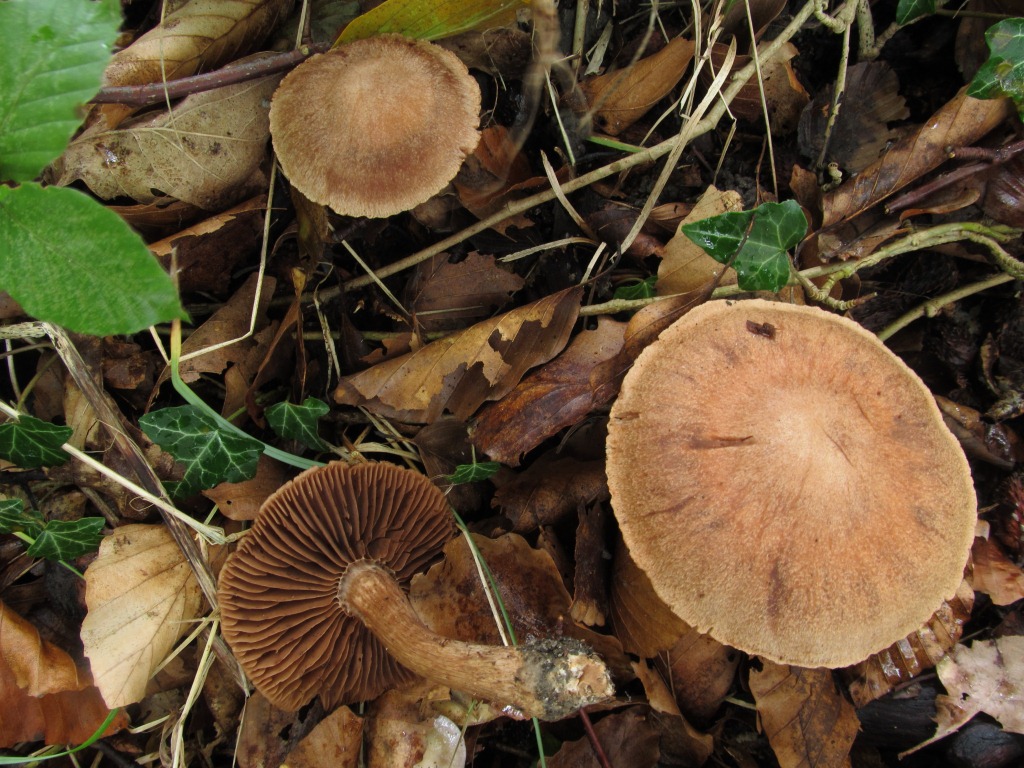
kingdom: Fungi
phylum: Basidiomycota
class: Agaricomycetes
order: Agaricales
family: Cortinariaceae
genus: Cortinarius
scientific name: Cortinarius
